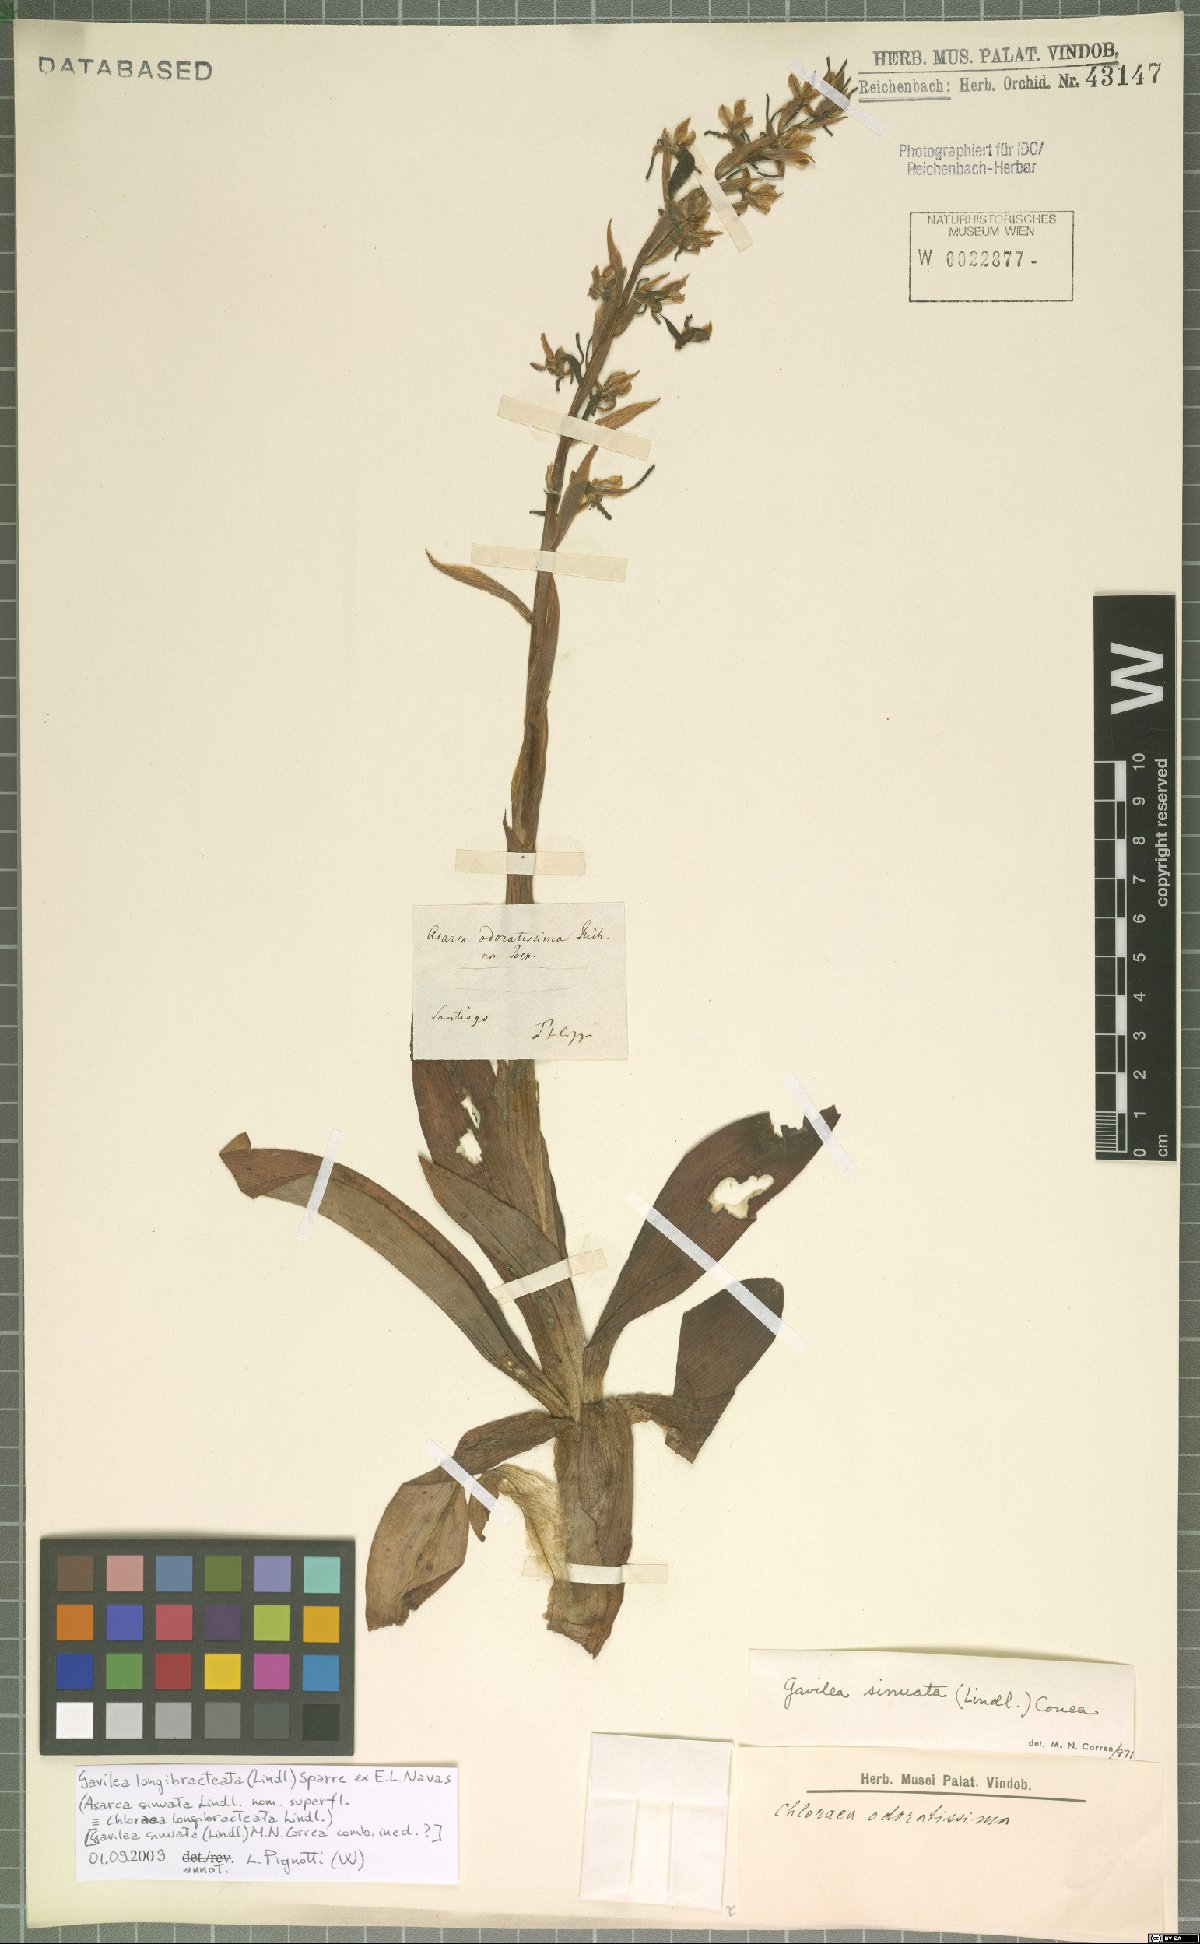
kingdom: Plantae
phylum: Tracheophyta
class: Liliopsida
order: Asparagales
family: Orchidaceae
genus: Gavilea
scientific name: Gavilea longibracteata
